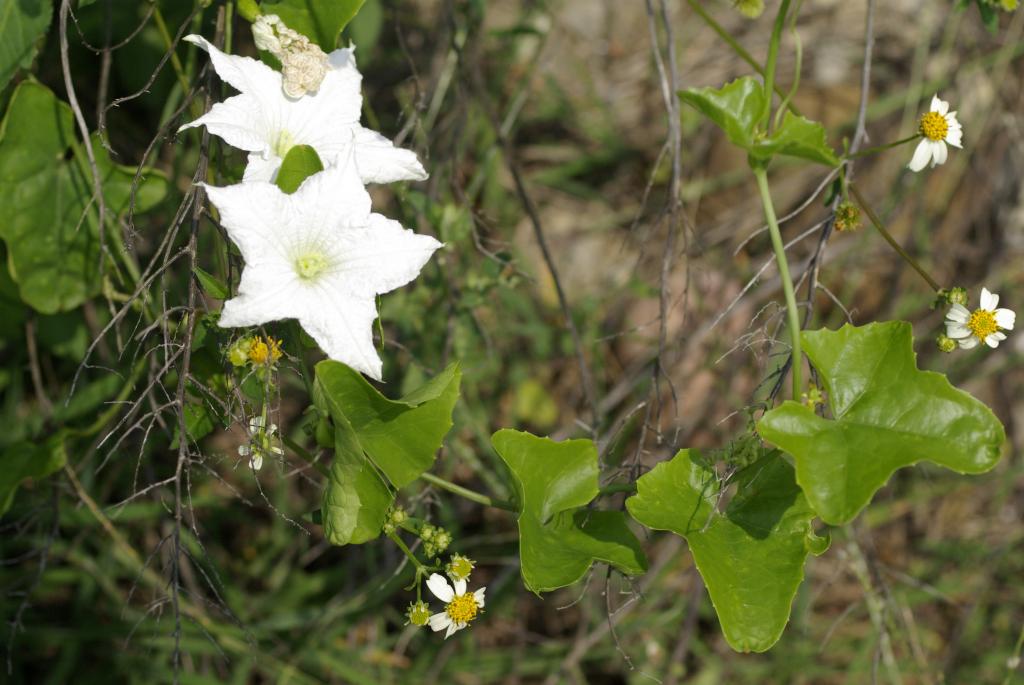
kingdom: Plantae
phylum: Tracheophyta
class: Magnoliopsida
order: Cucurbitales
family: Cucurbitaceae
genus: Coccinia
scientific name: Coccinia grandis
